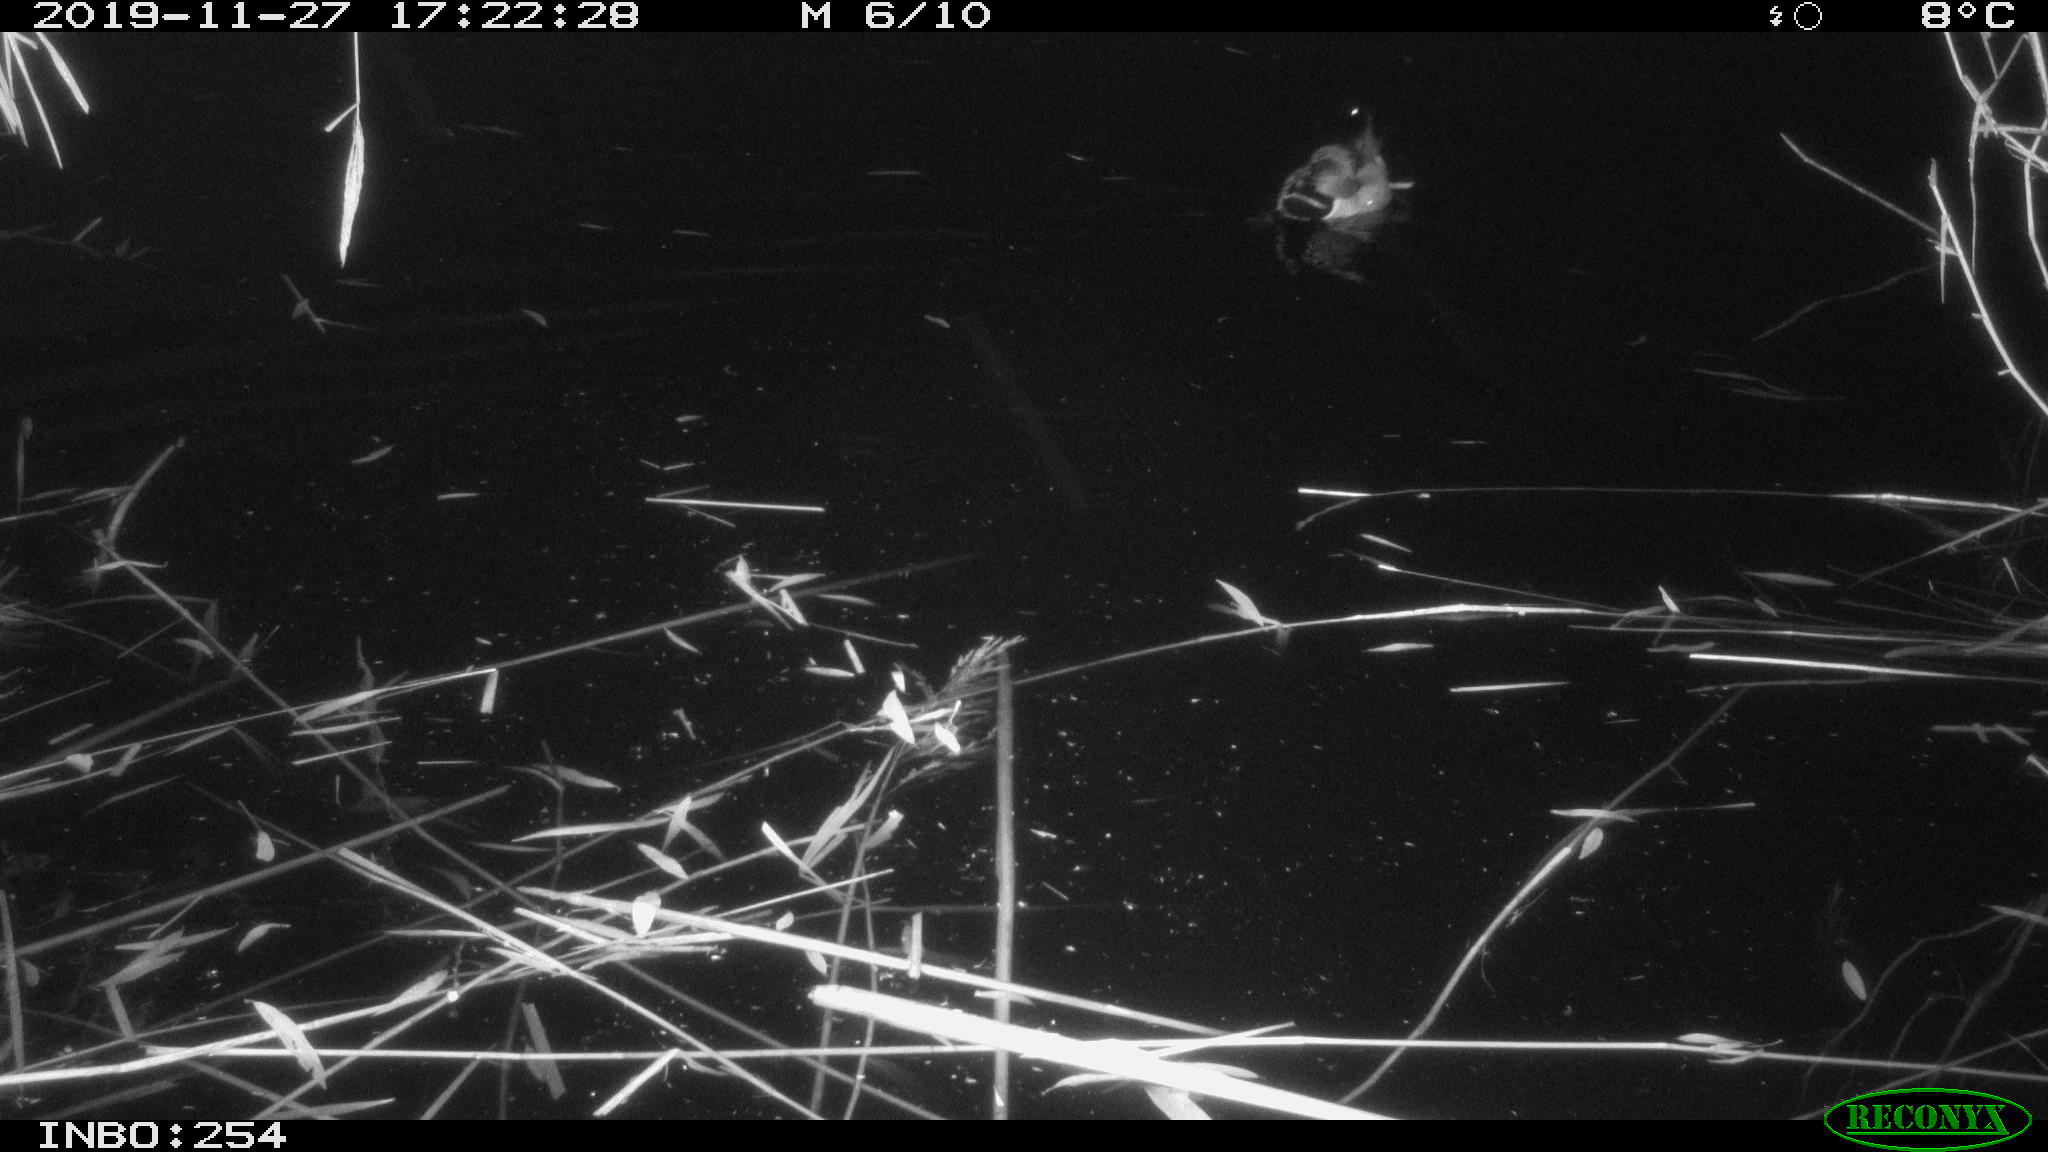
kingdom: Animalia
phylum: Chordata
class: Aves
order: Anseriformes
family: Anatidae
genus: Anas
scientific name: Anas platyrhynchos
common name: Mallard
